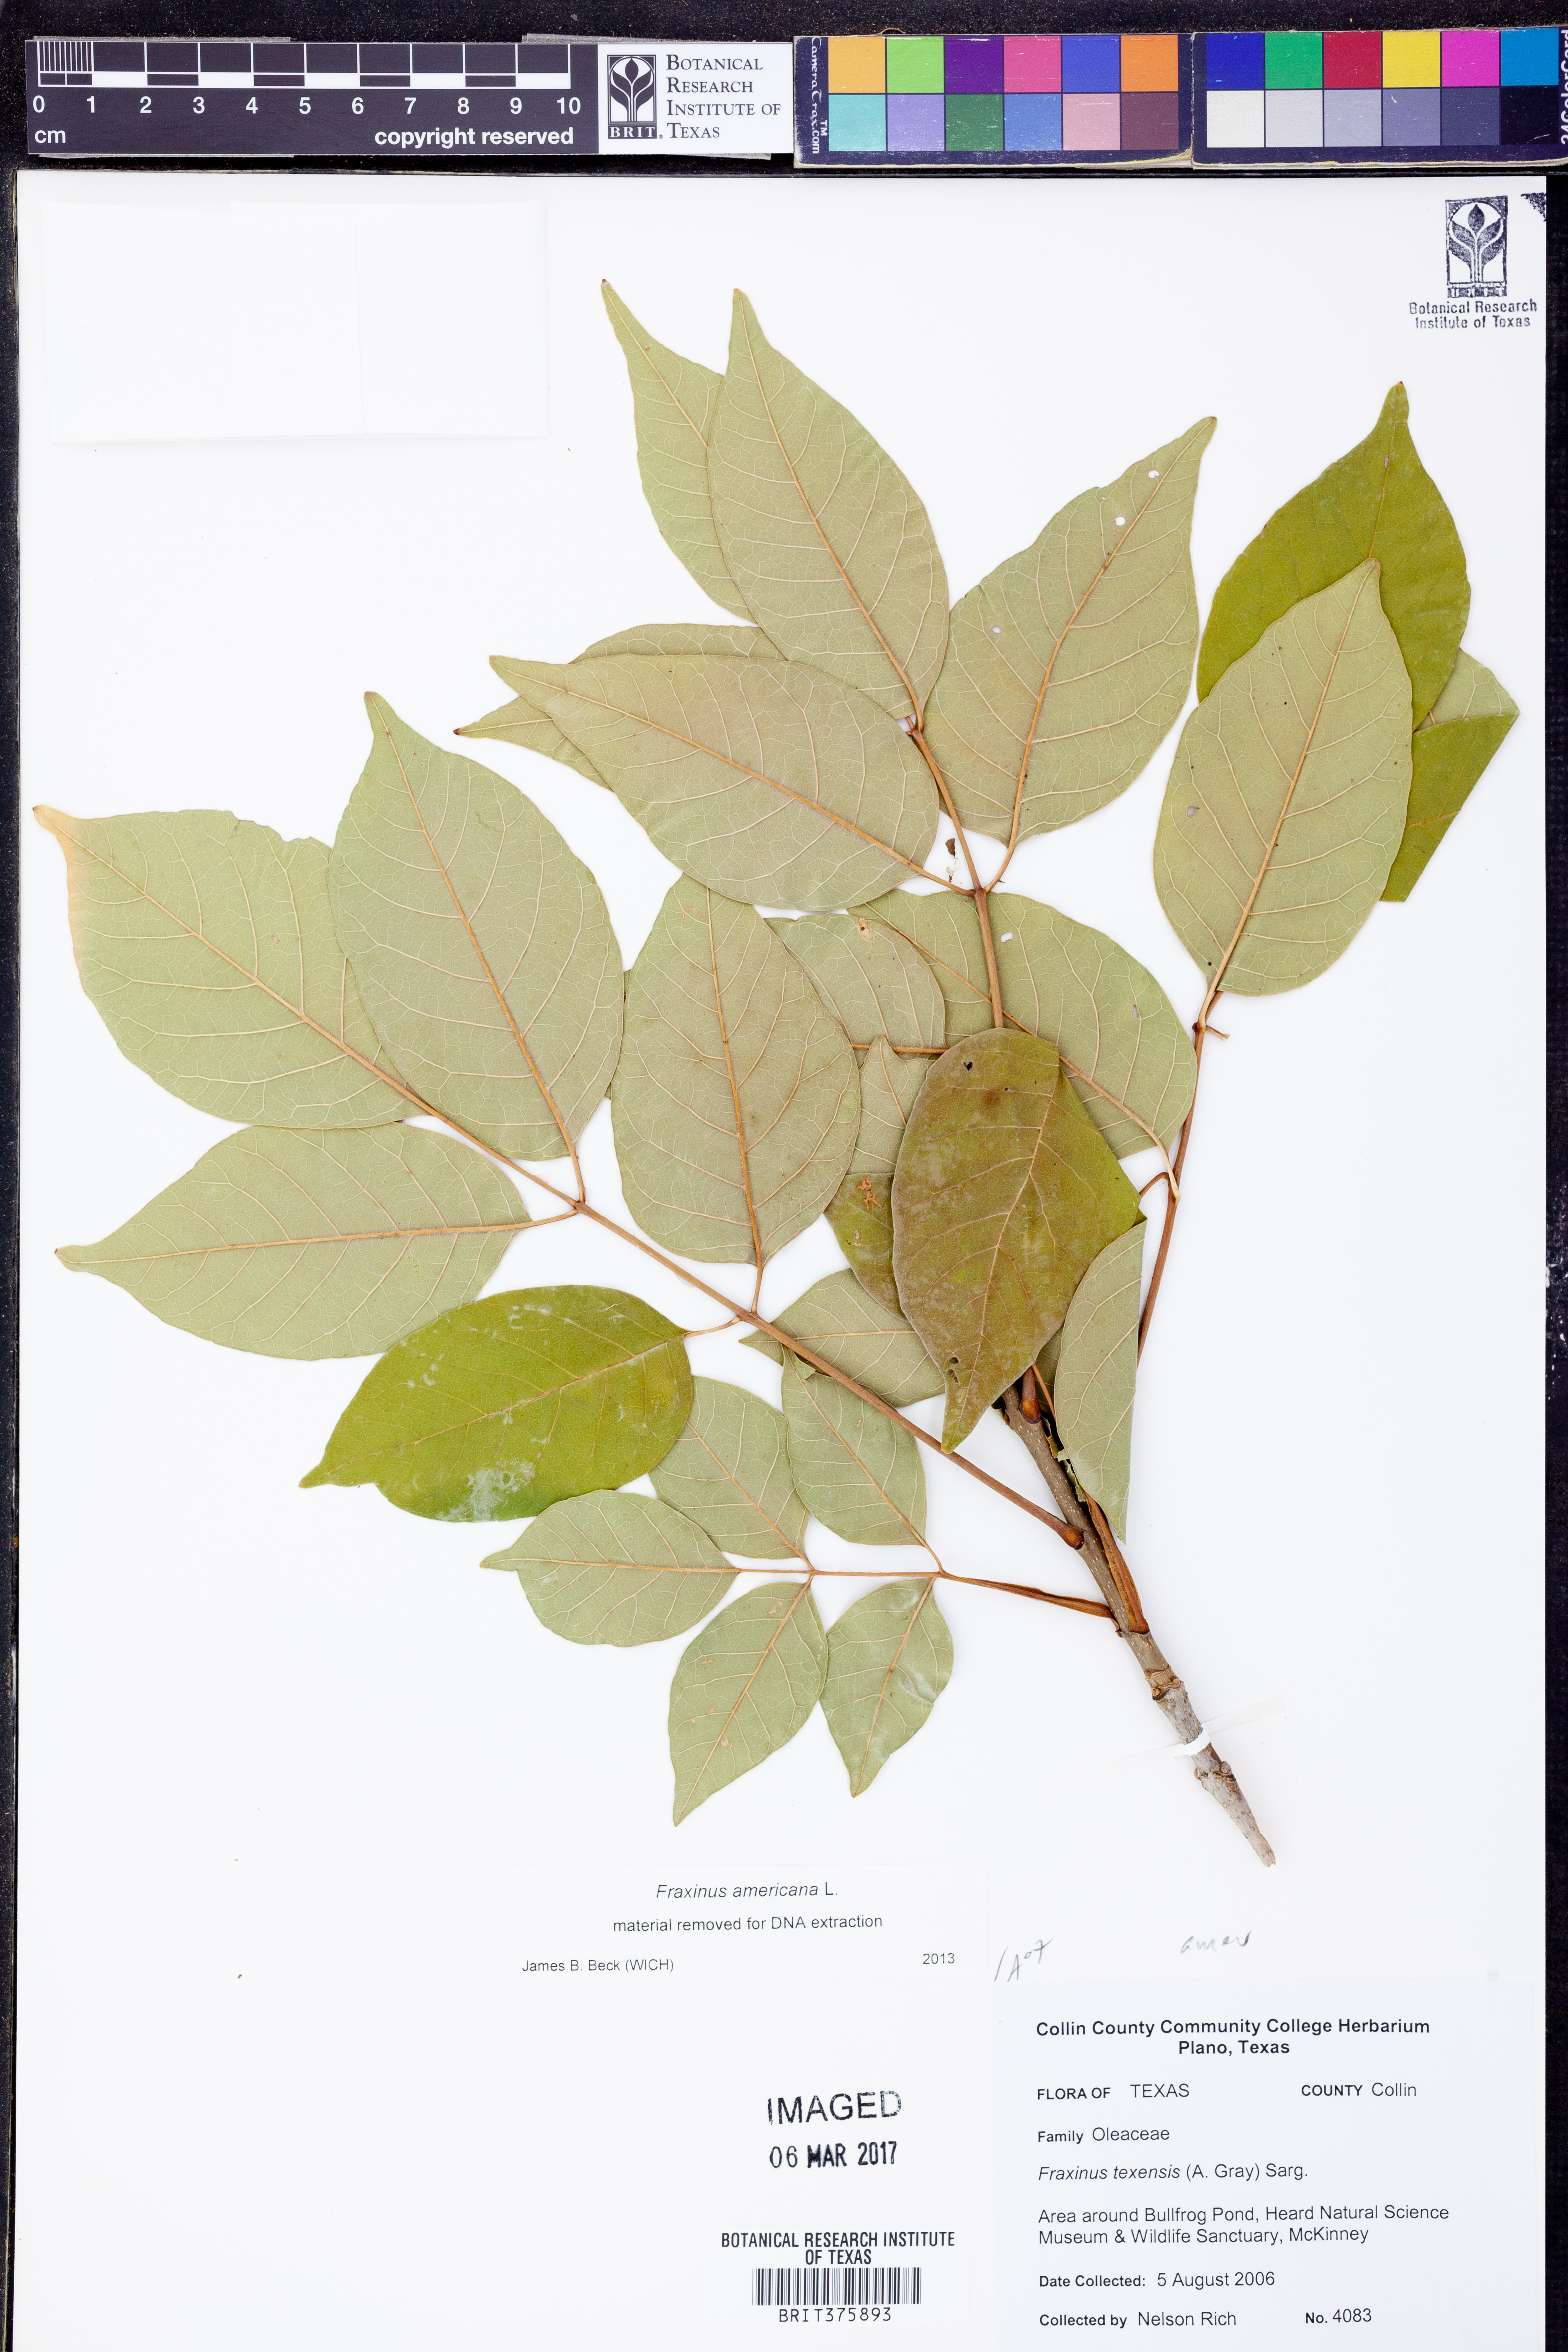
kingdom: Plantae
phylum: Tracheophyta
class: Magnoliopsida
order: Lamiales
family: Oleaceae
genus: Fraxinus
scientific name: Fraxinus americana
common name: White ash
